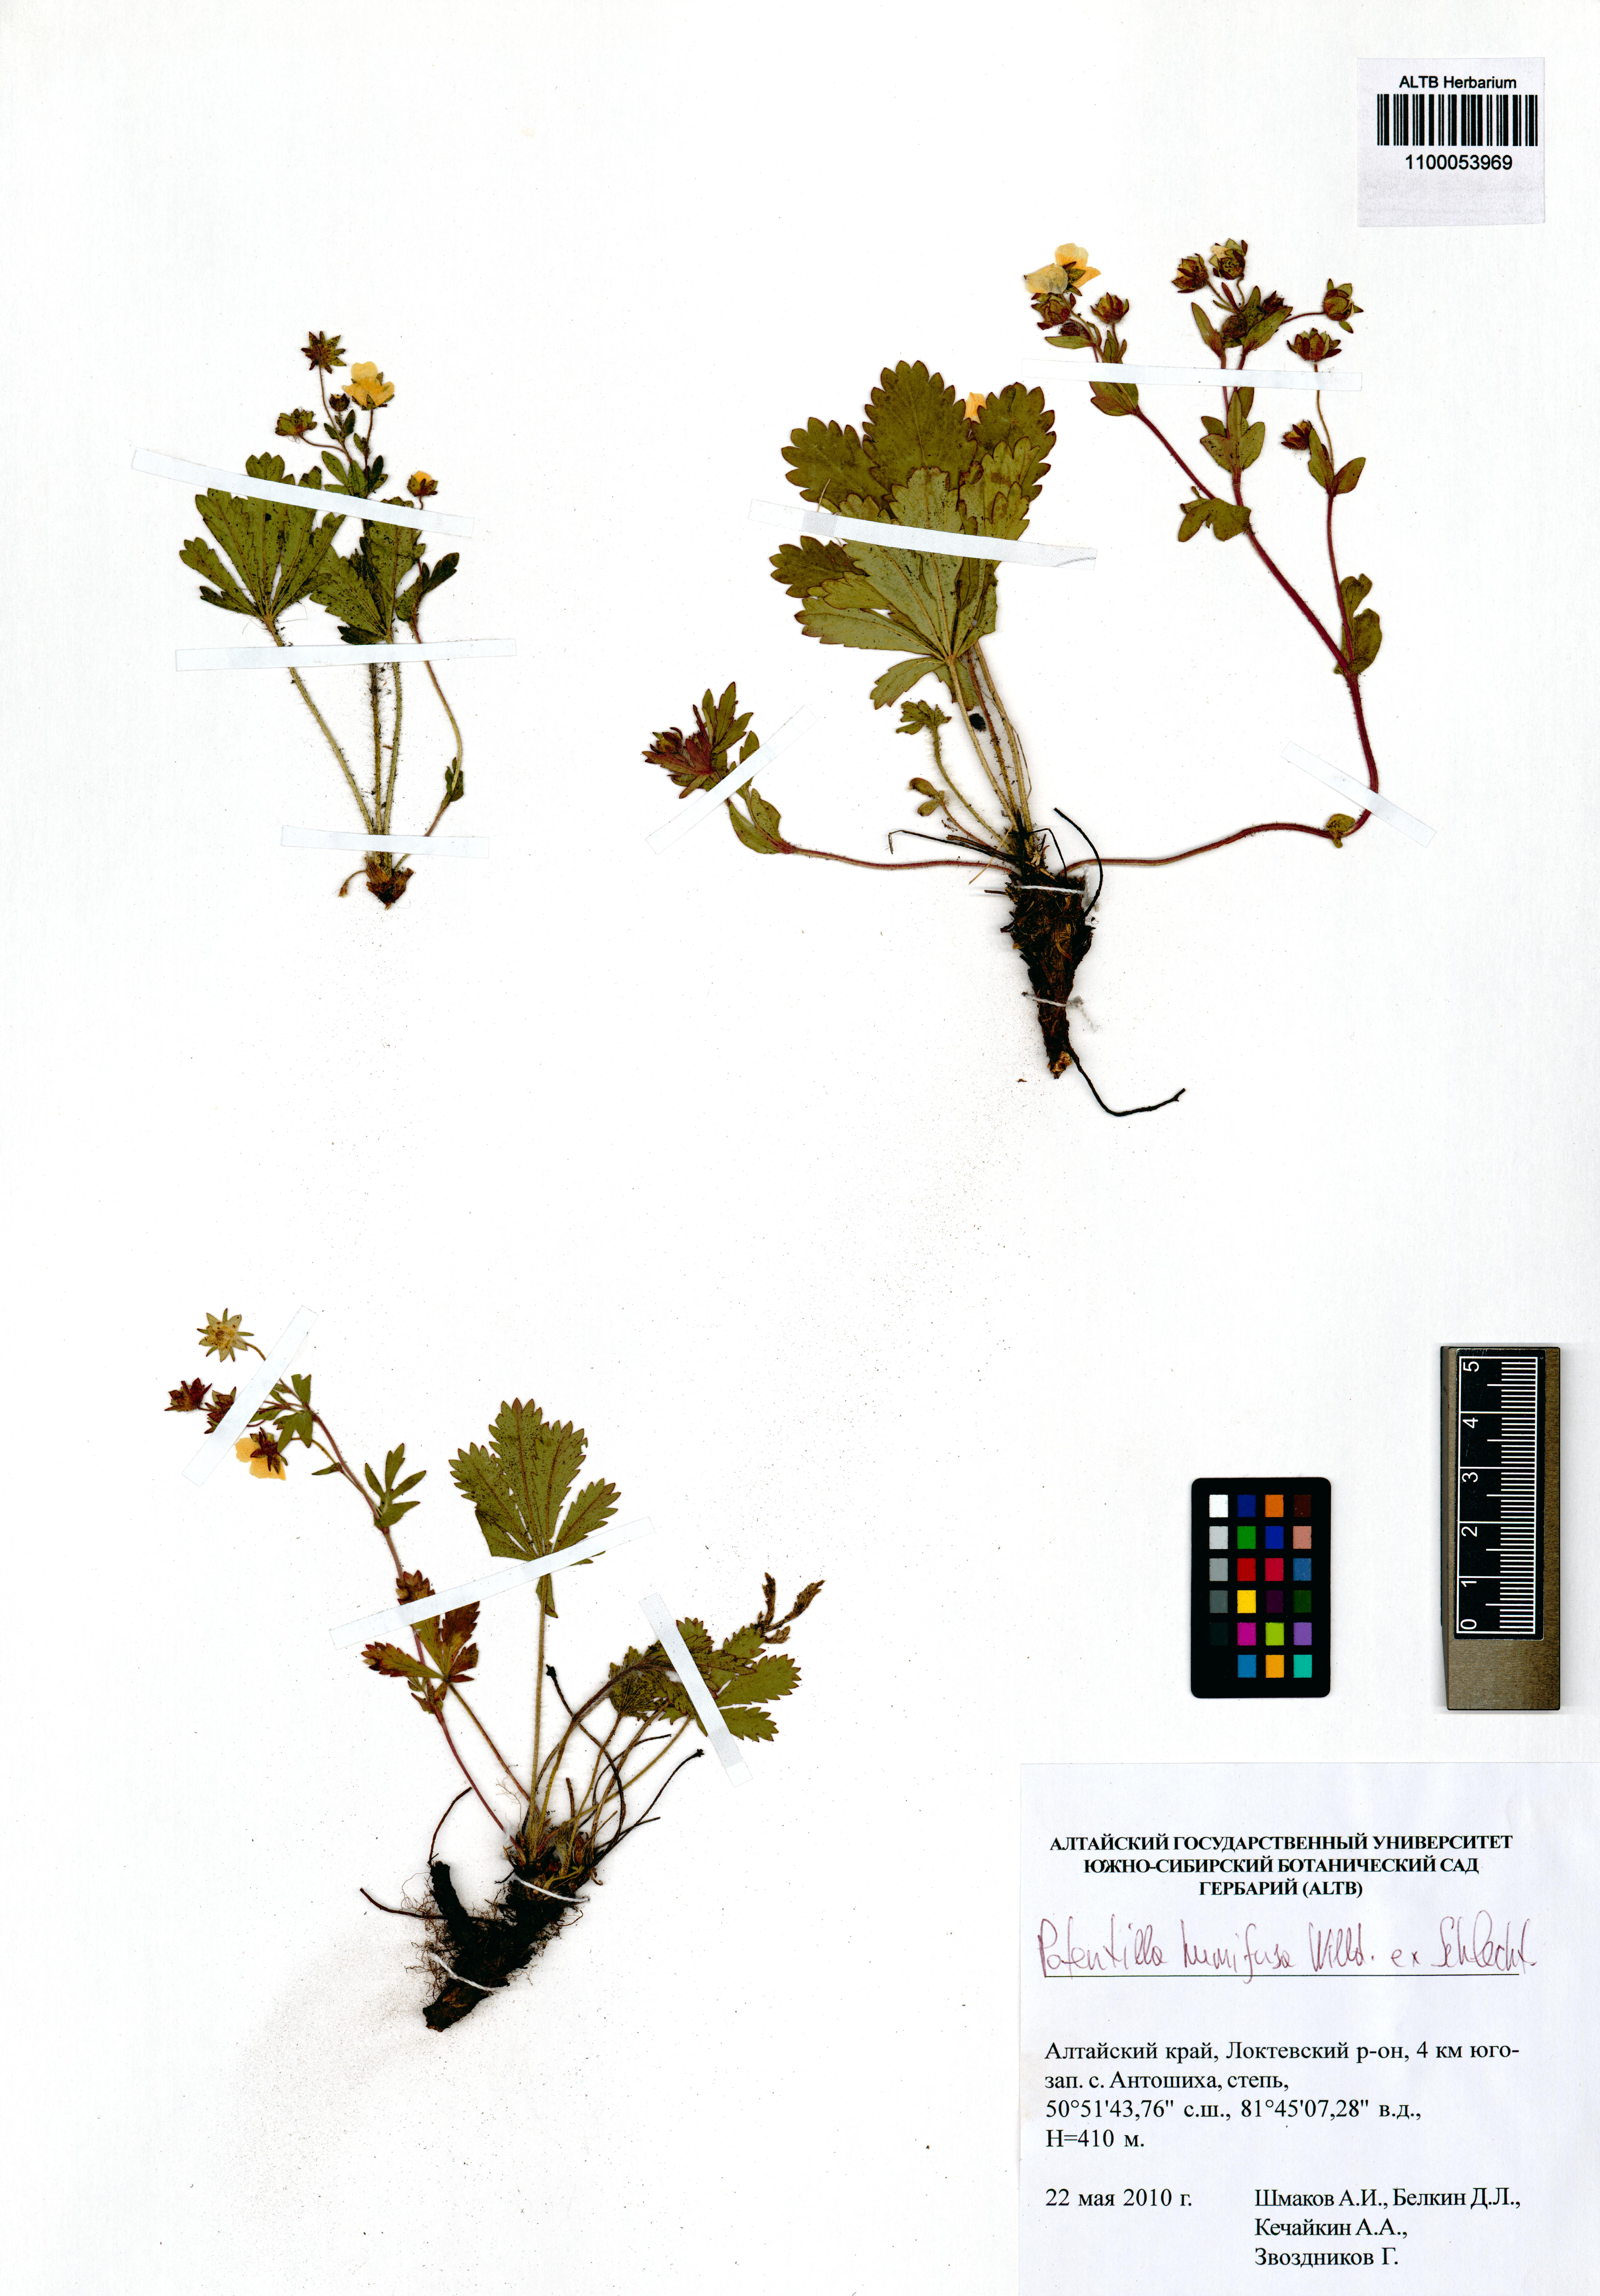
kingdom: Plantae
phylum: Tracheophyta
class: Magnoliopsida
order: Rosales
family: Rosaceae
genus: Potentilla
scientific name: Potentilla humifusa
